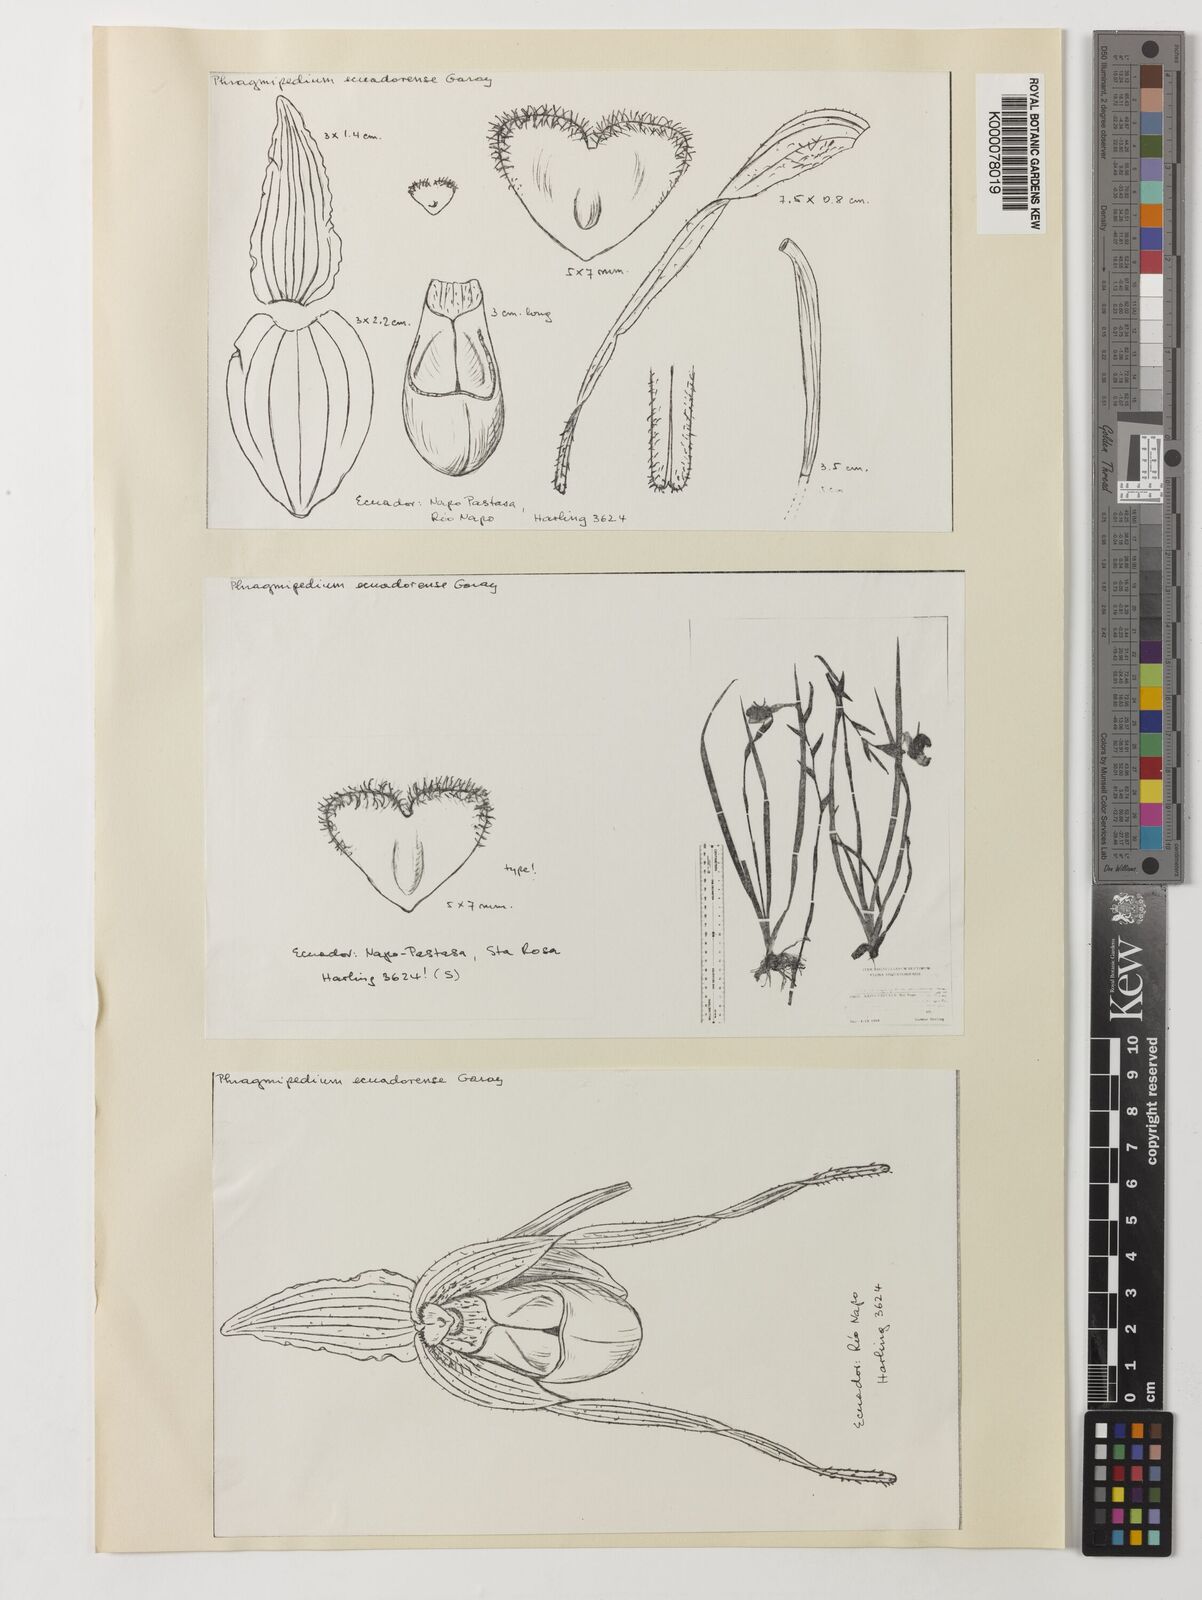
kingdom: Plantae
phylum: Tracheophyta
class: Liliopsida
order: Asparagales
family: Orchidaceae
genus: Phragmipedium
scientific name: Phragmipedium pearcei
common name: Pearce's phragmipedium
